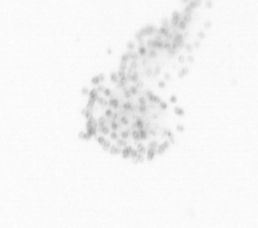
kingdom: Chromista
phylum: Ochrophyta
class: Bacillariophyceae
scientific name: Bacillariophyceae
